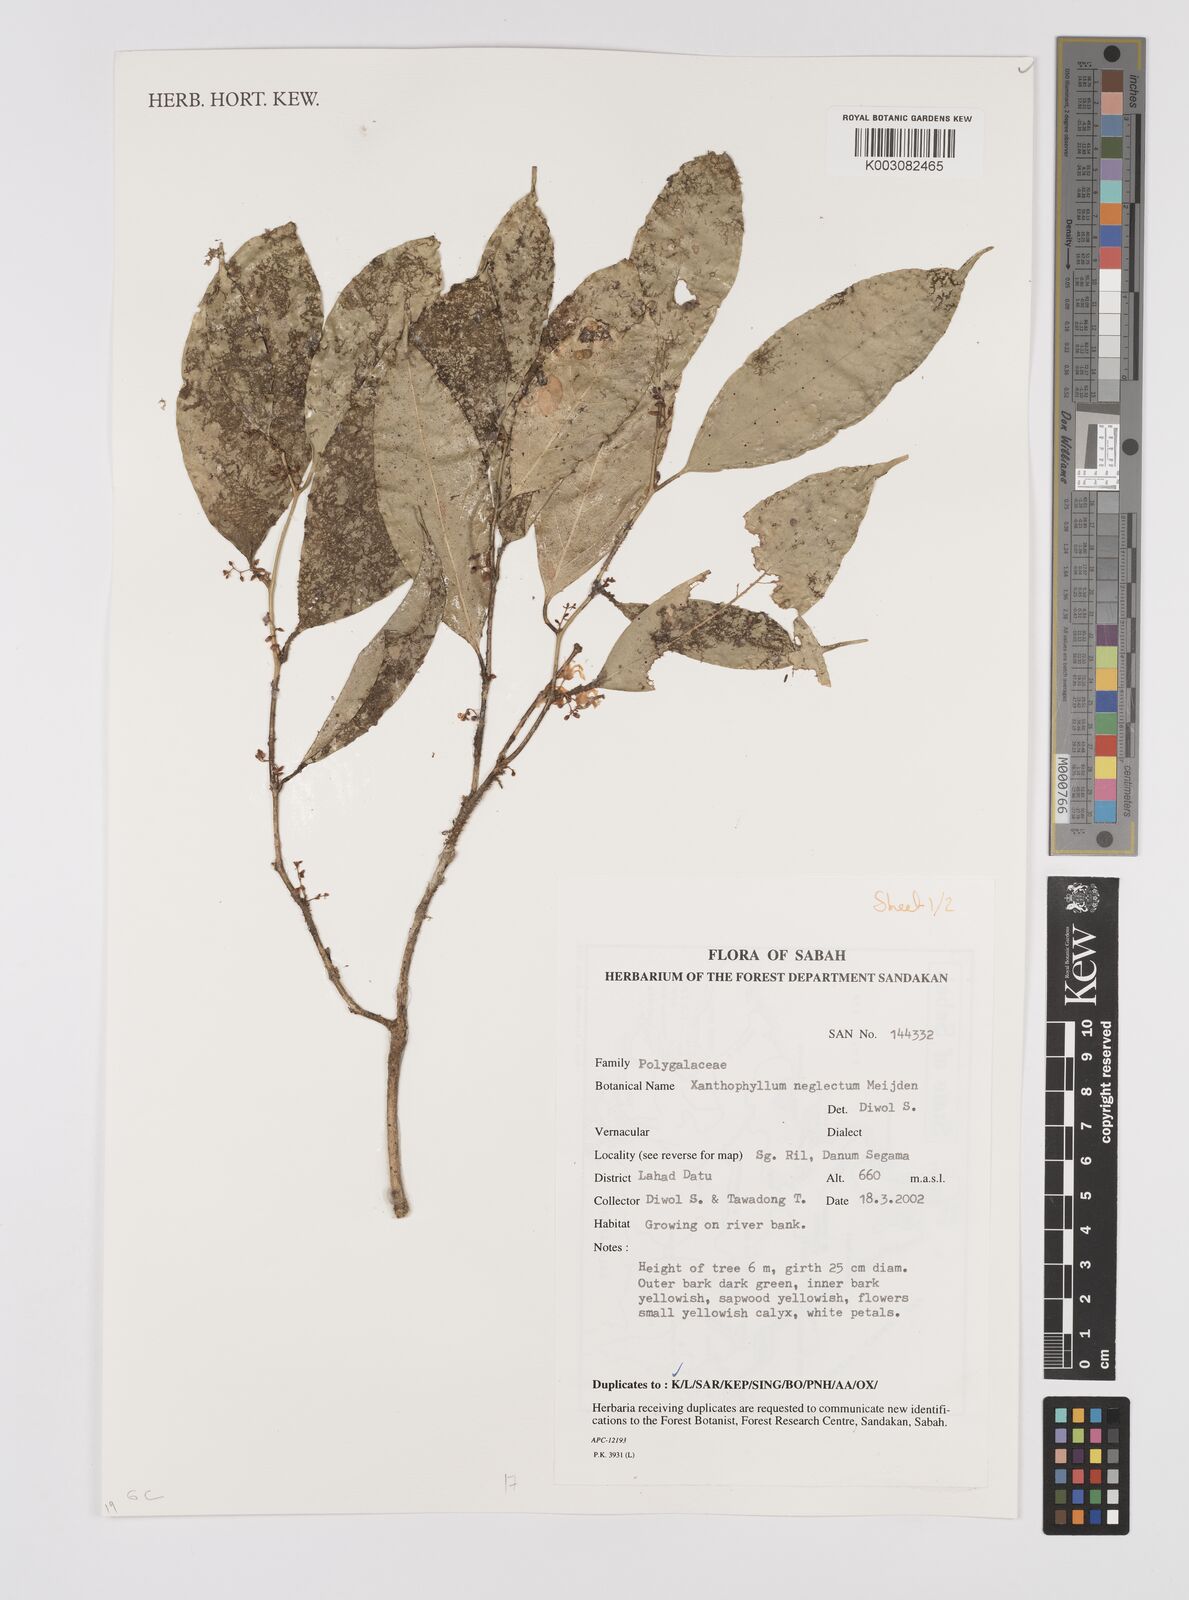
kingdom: Plantae
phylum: Tracheophyta
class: Magnoliopsida
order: Fabales
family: Polygalaceae
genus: Xanthophyllum
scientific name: Xanthophyllum neglectum
